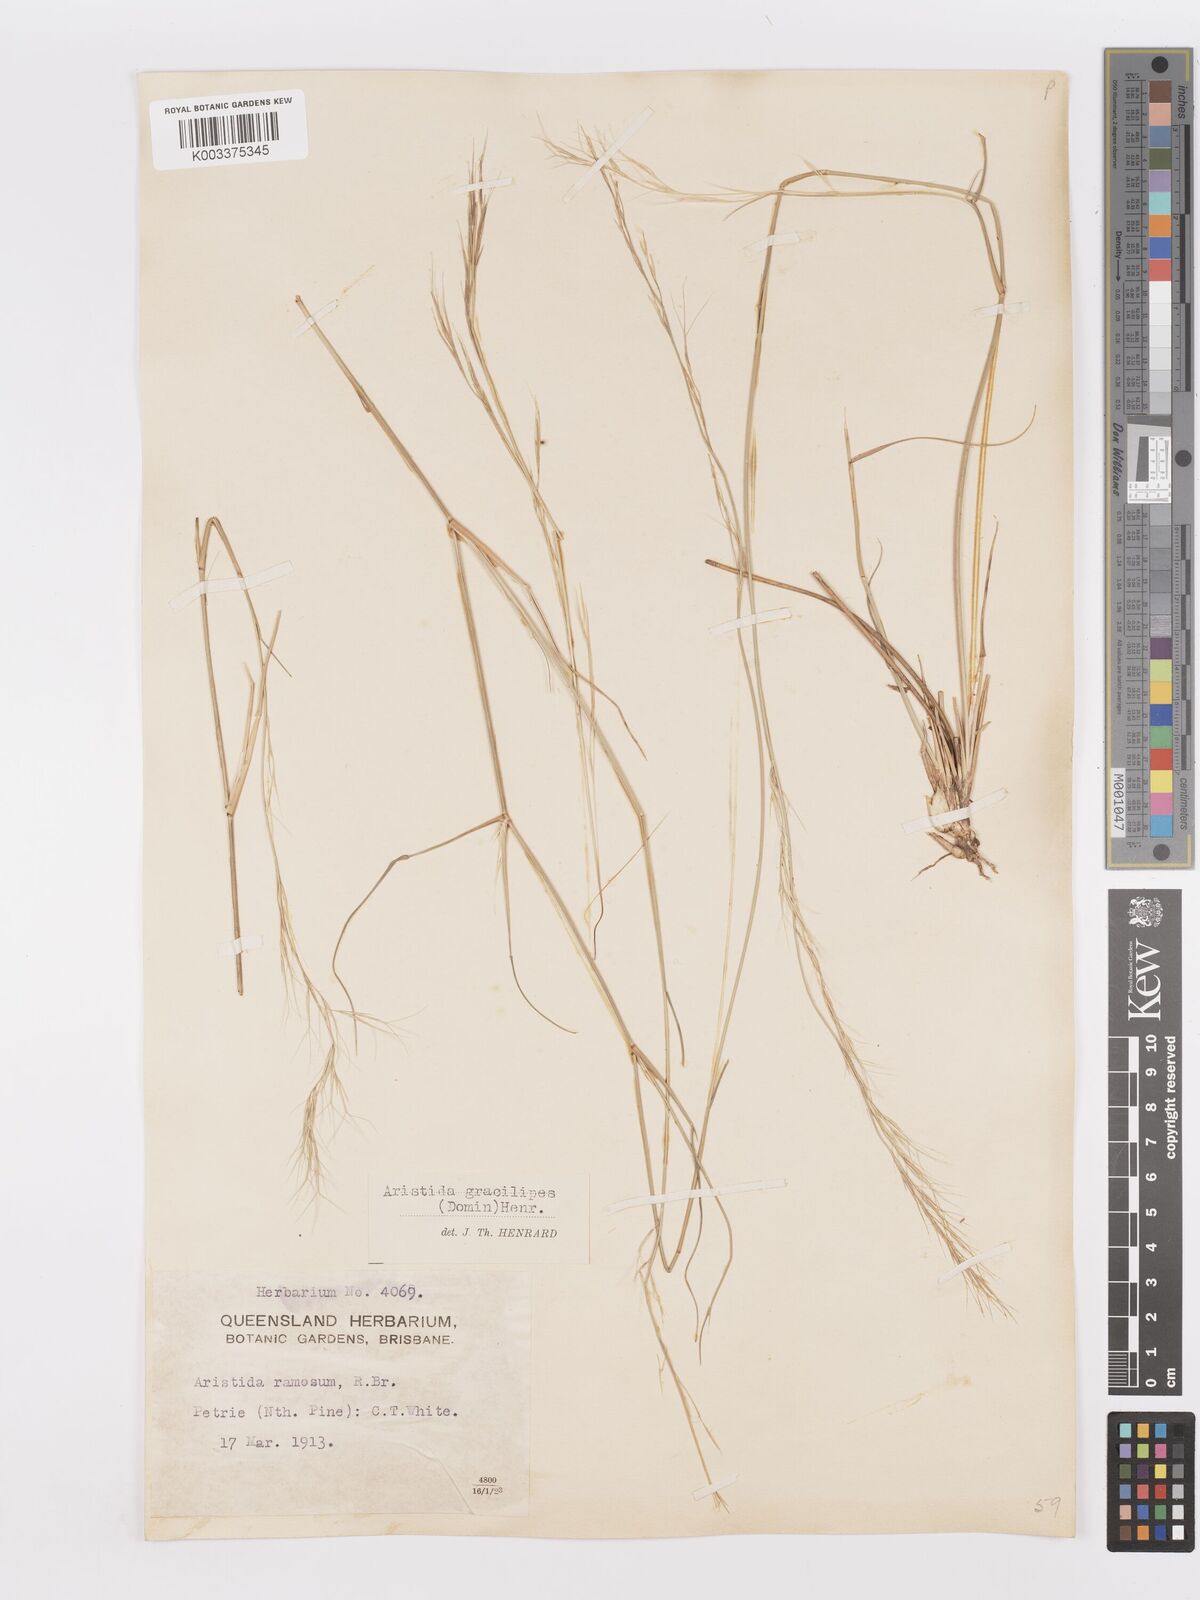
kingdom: Plantae
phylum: Tracheophyta
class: Liliopsida
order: Poales
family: Poaceae
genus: Aristida
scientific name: Aristida gracilipes
